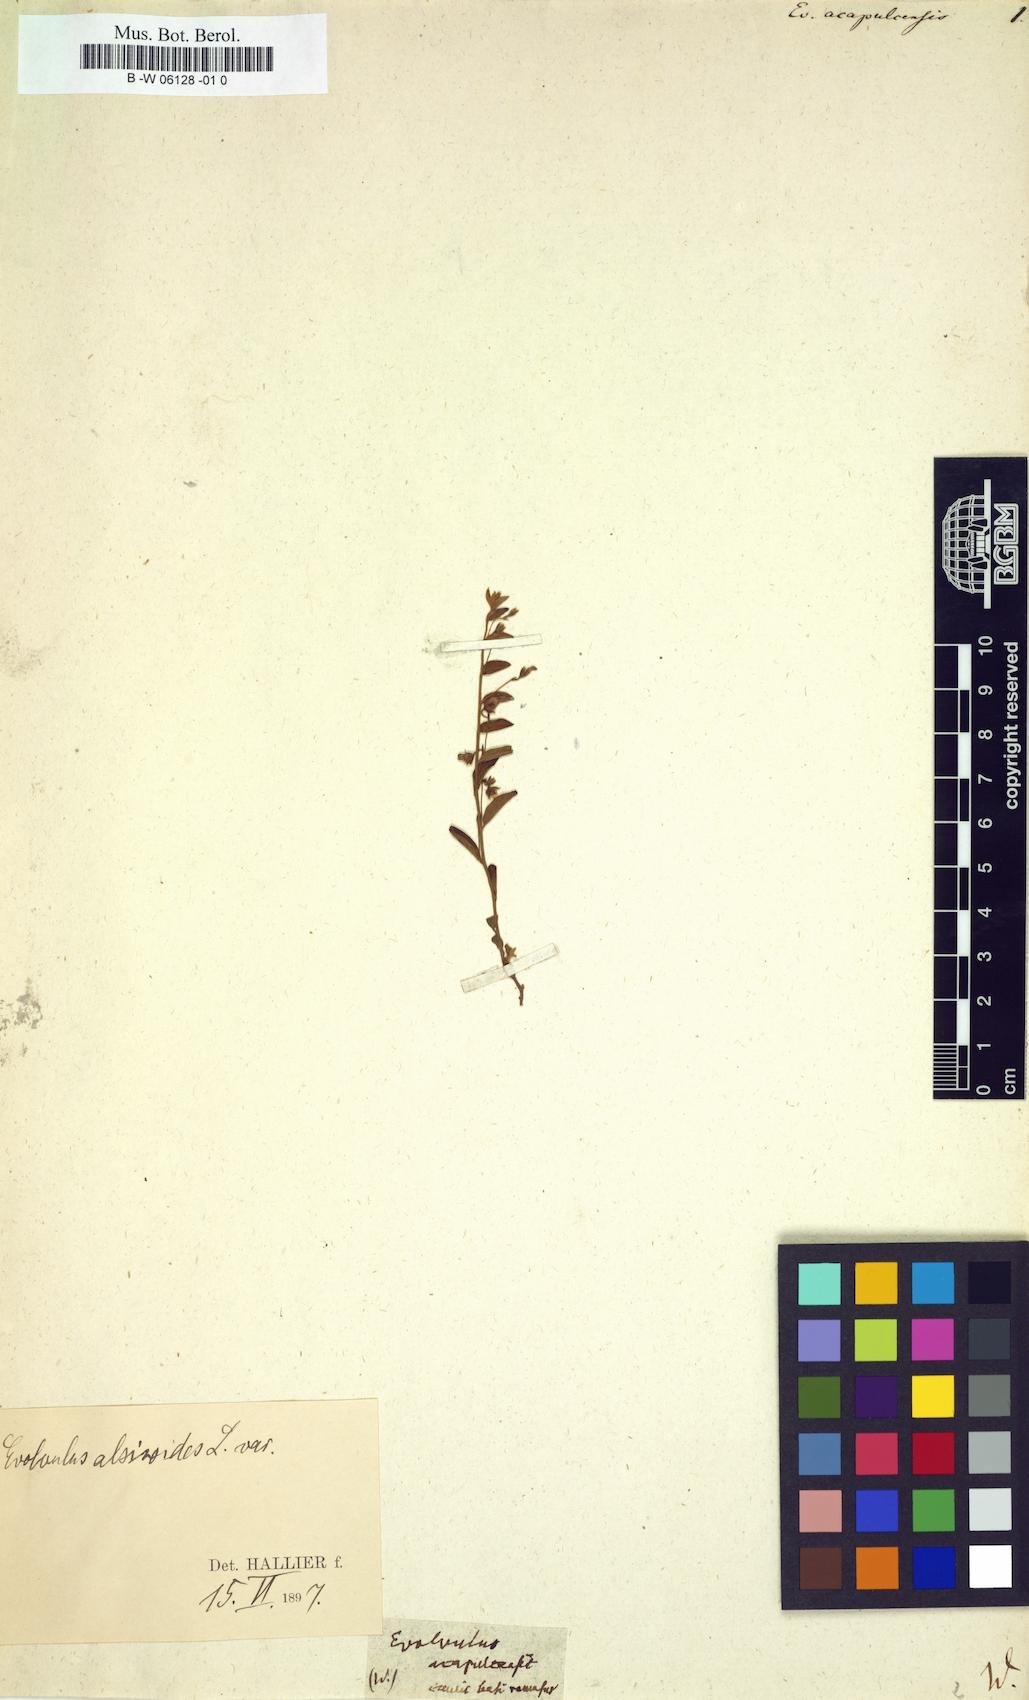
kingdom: Plantae
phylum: Tracheophyta
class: Magnoliopsida
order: Solanales
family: Convolvulaceae
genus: Evolvulus
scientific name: Evolvulus alsinoides
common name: Slender dwarf morning-glory
